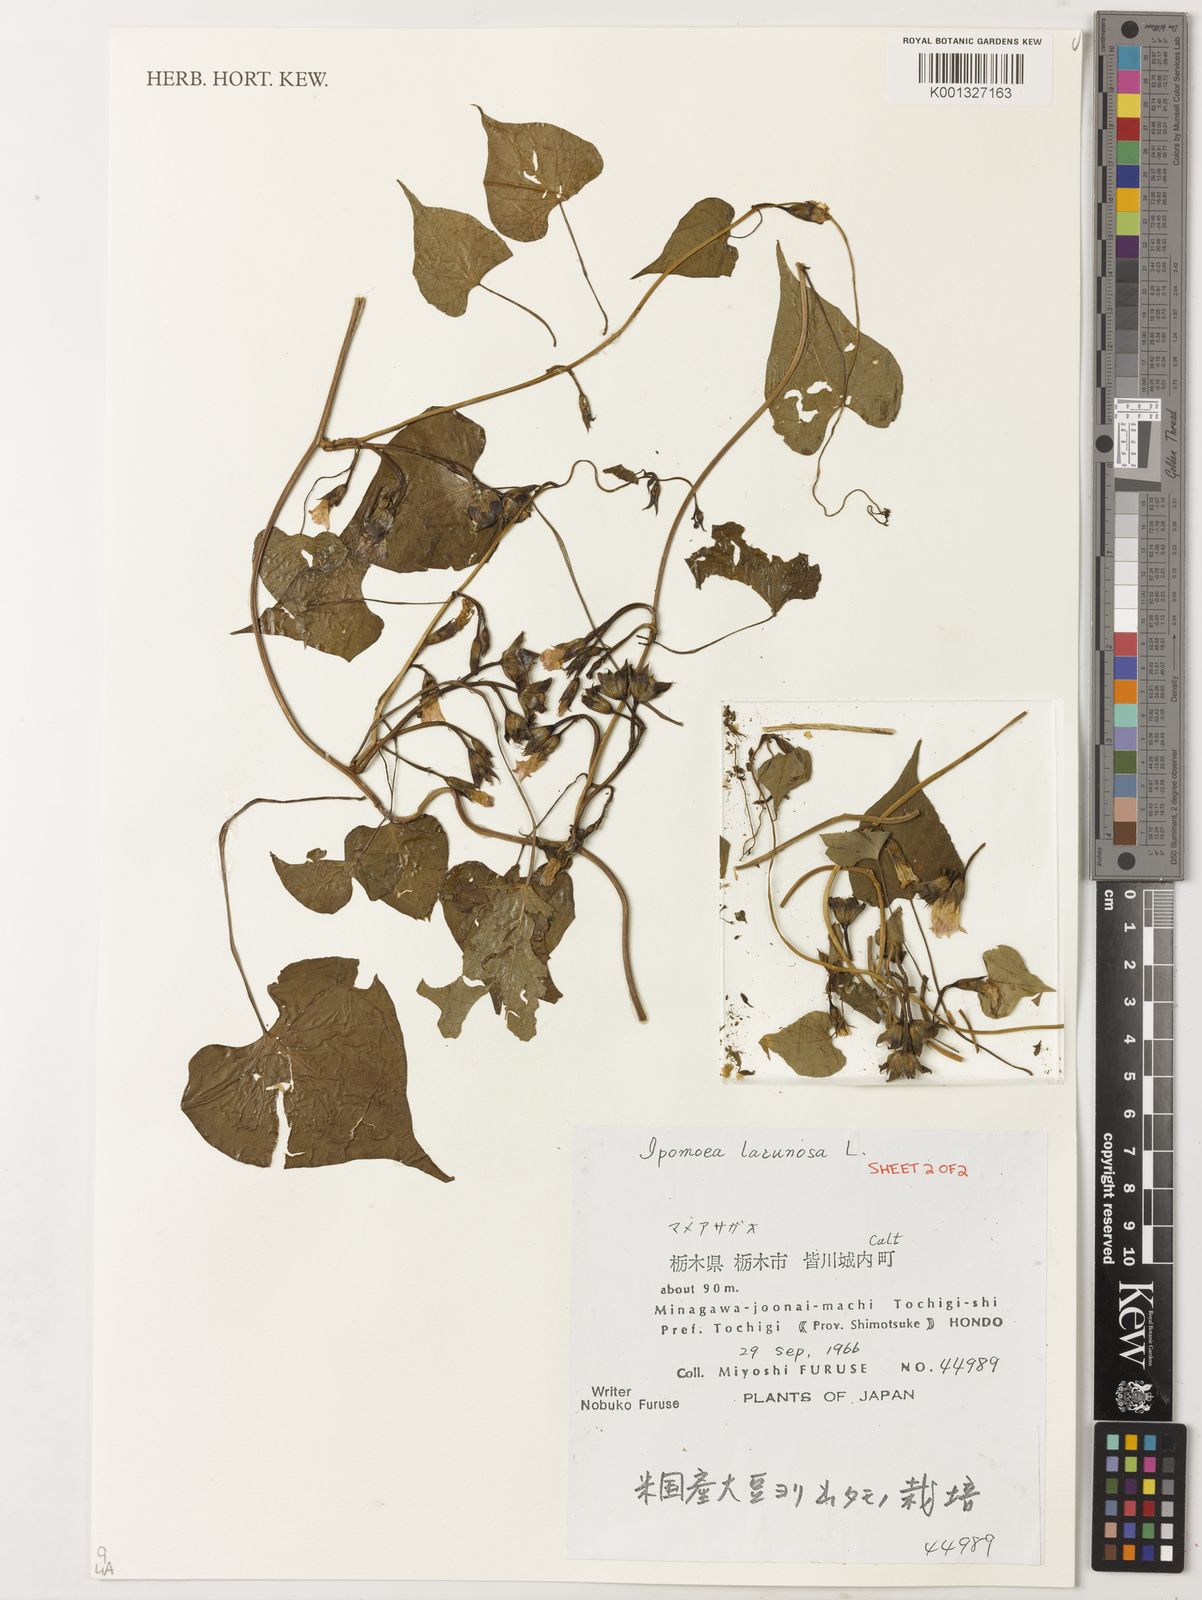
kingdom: Plantae
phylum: Tracheophyta
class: Magnoliopsida
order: Solanales
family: Convolvulaceae
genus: Ipomoea
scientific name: Ipomoea triloba
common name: Little-bell
